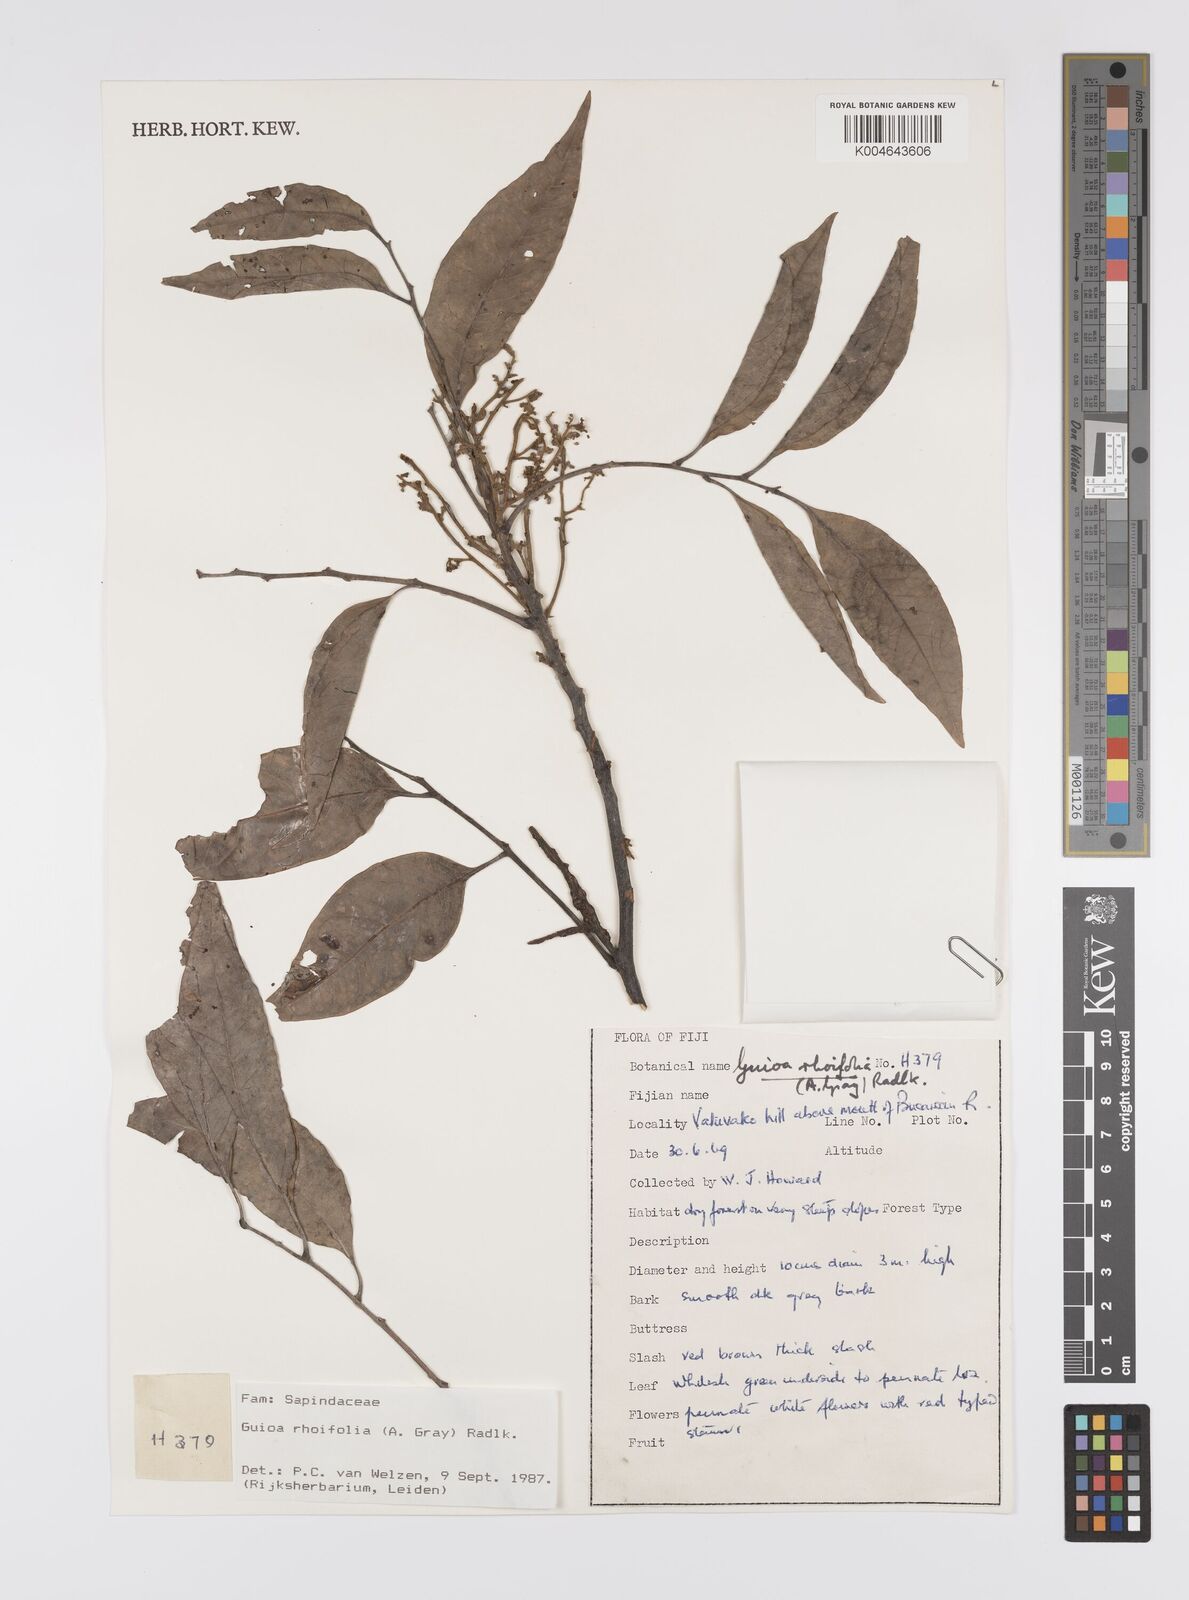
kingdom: Plantae
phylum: Tracheophyta
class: Magnoliopsida
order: Sapindales
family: Sapindaceae
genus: Guioa
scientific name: Guioa rhoifolia
